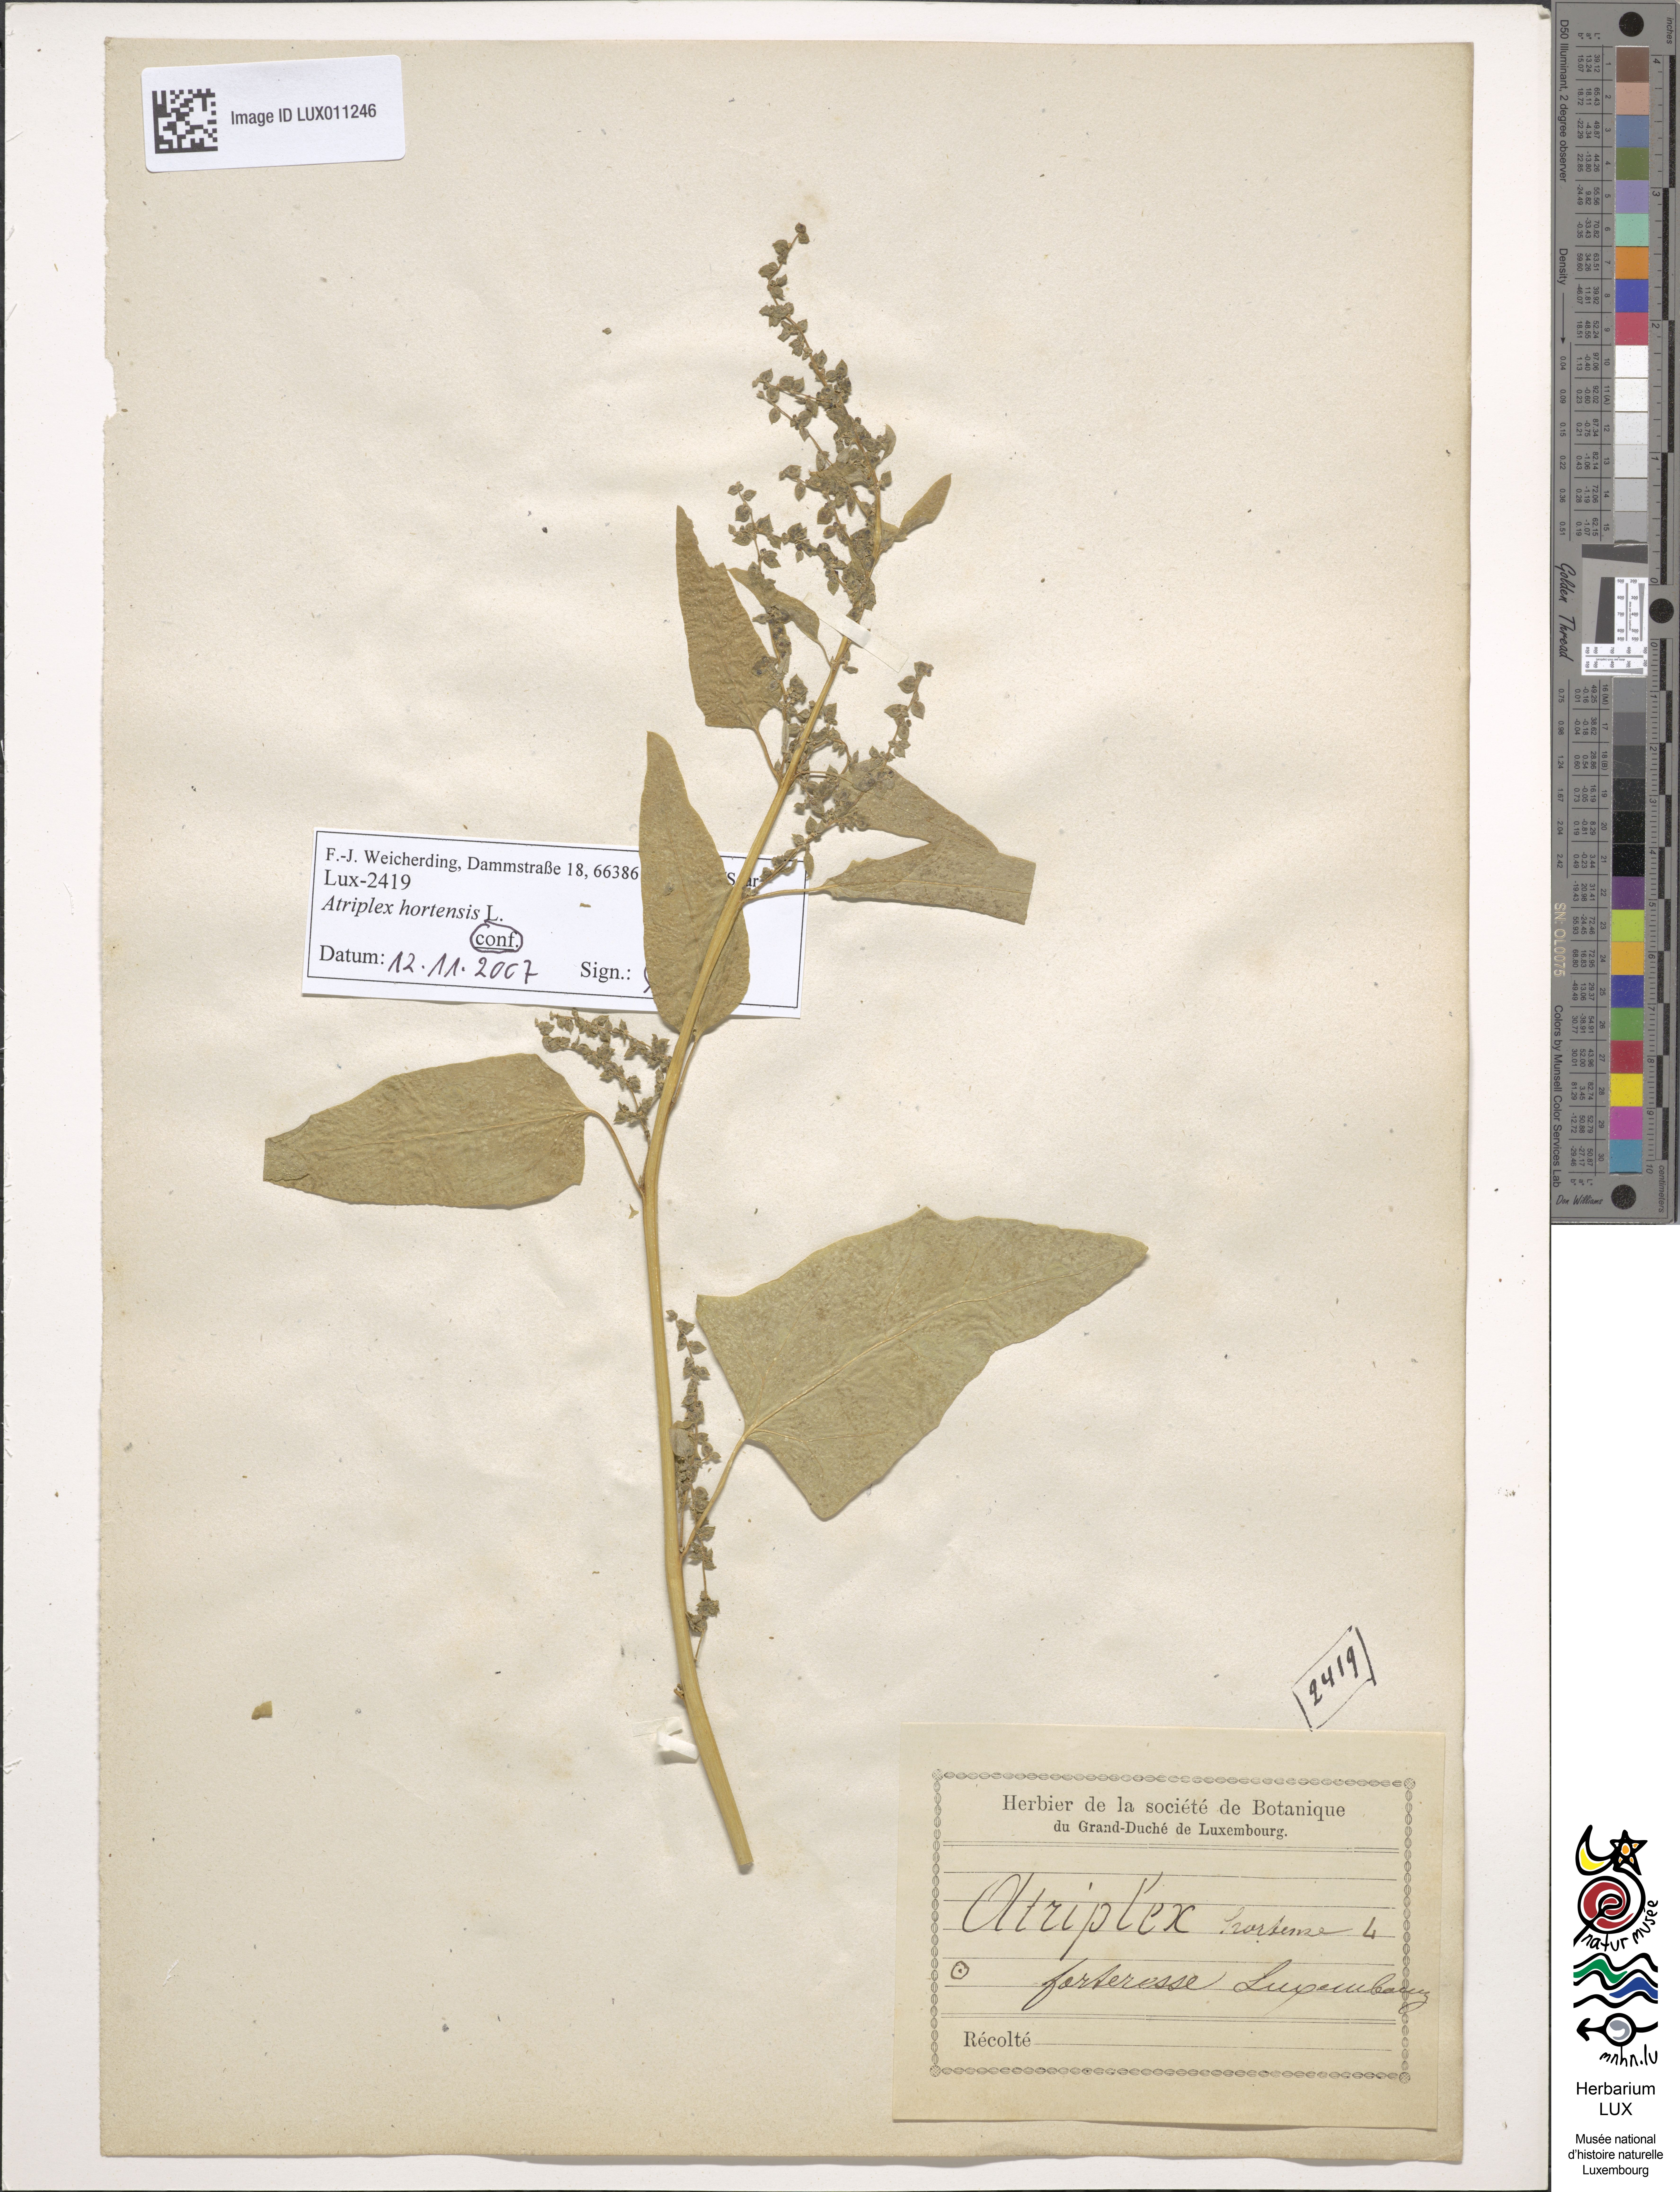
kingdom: Plantae
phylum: Tracheophyta
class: Magnoliopsida
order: Caryophyllales
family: Amaranthaceae
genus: Atriplex
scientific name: Atriplex hortensis
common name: Garden orache
